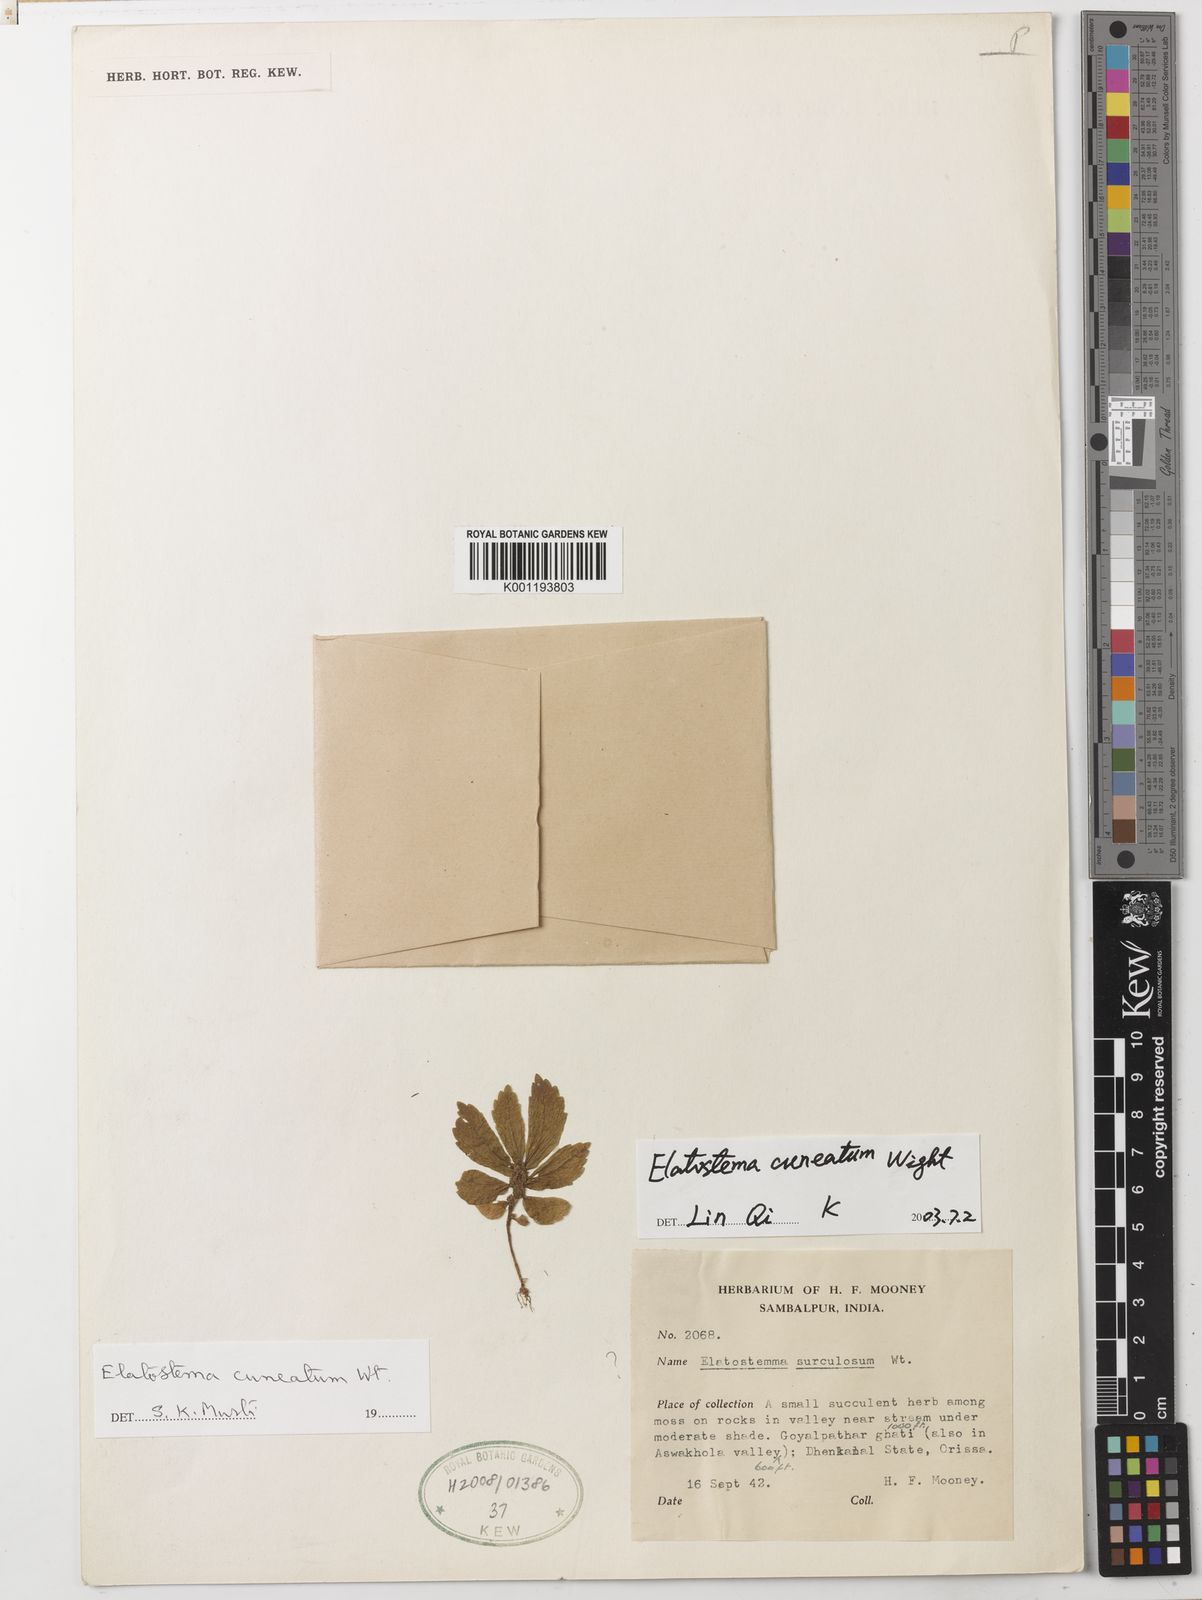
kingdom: Plantae
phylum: Tracheophyta
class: Magnoliopsida
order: Rosales
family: Urticaceae
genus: Elatostema
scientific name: Elatostema cuneatum
